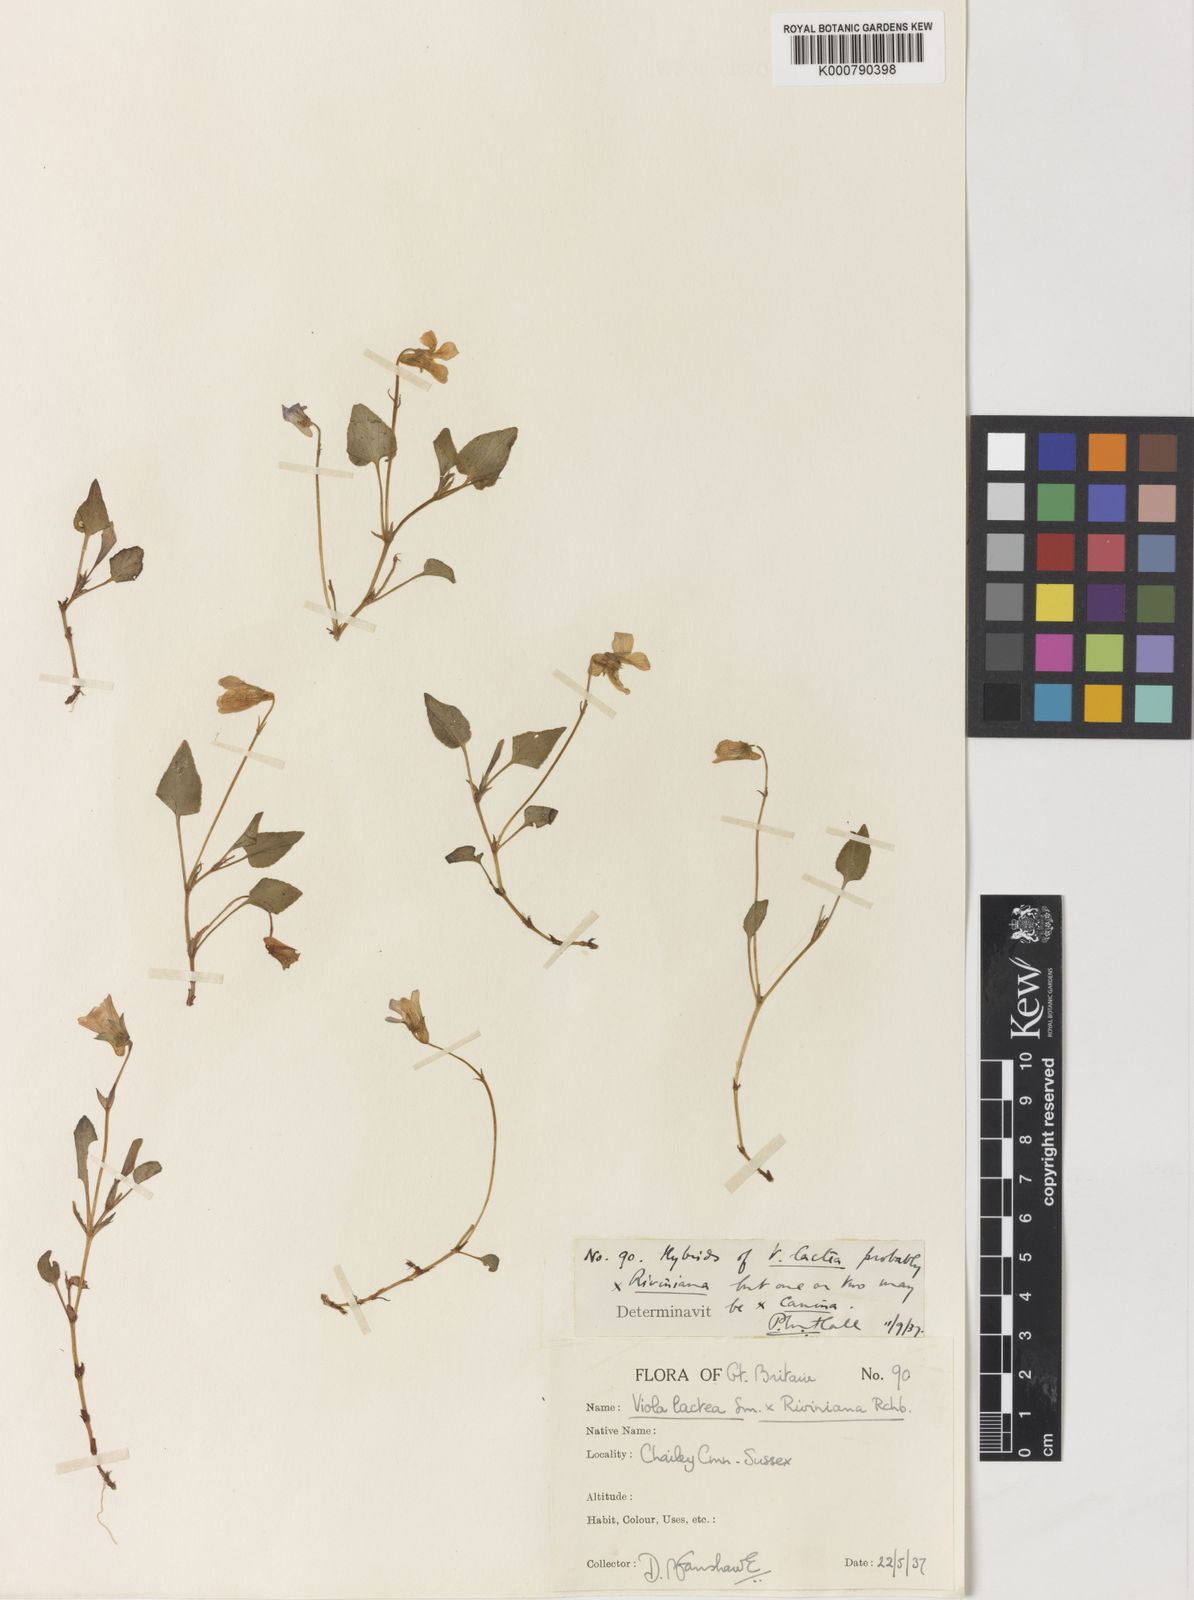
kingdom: Plantae
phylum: Tracheophyta
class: Magnoliopsida
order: Malpighiales
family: Violaceae
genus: Viola
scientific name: Viola lactea
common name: Pale dog-violet
